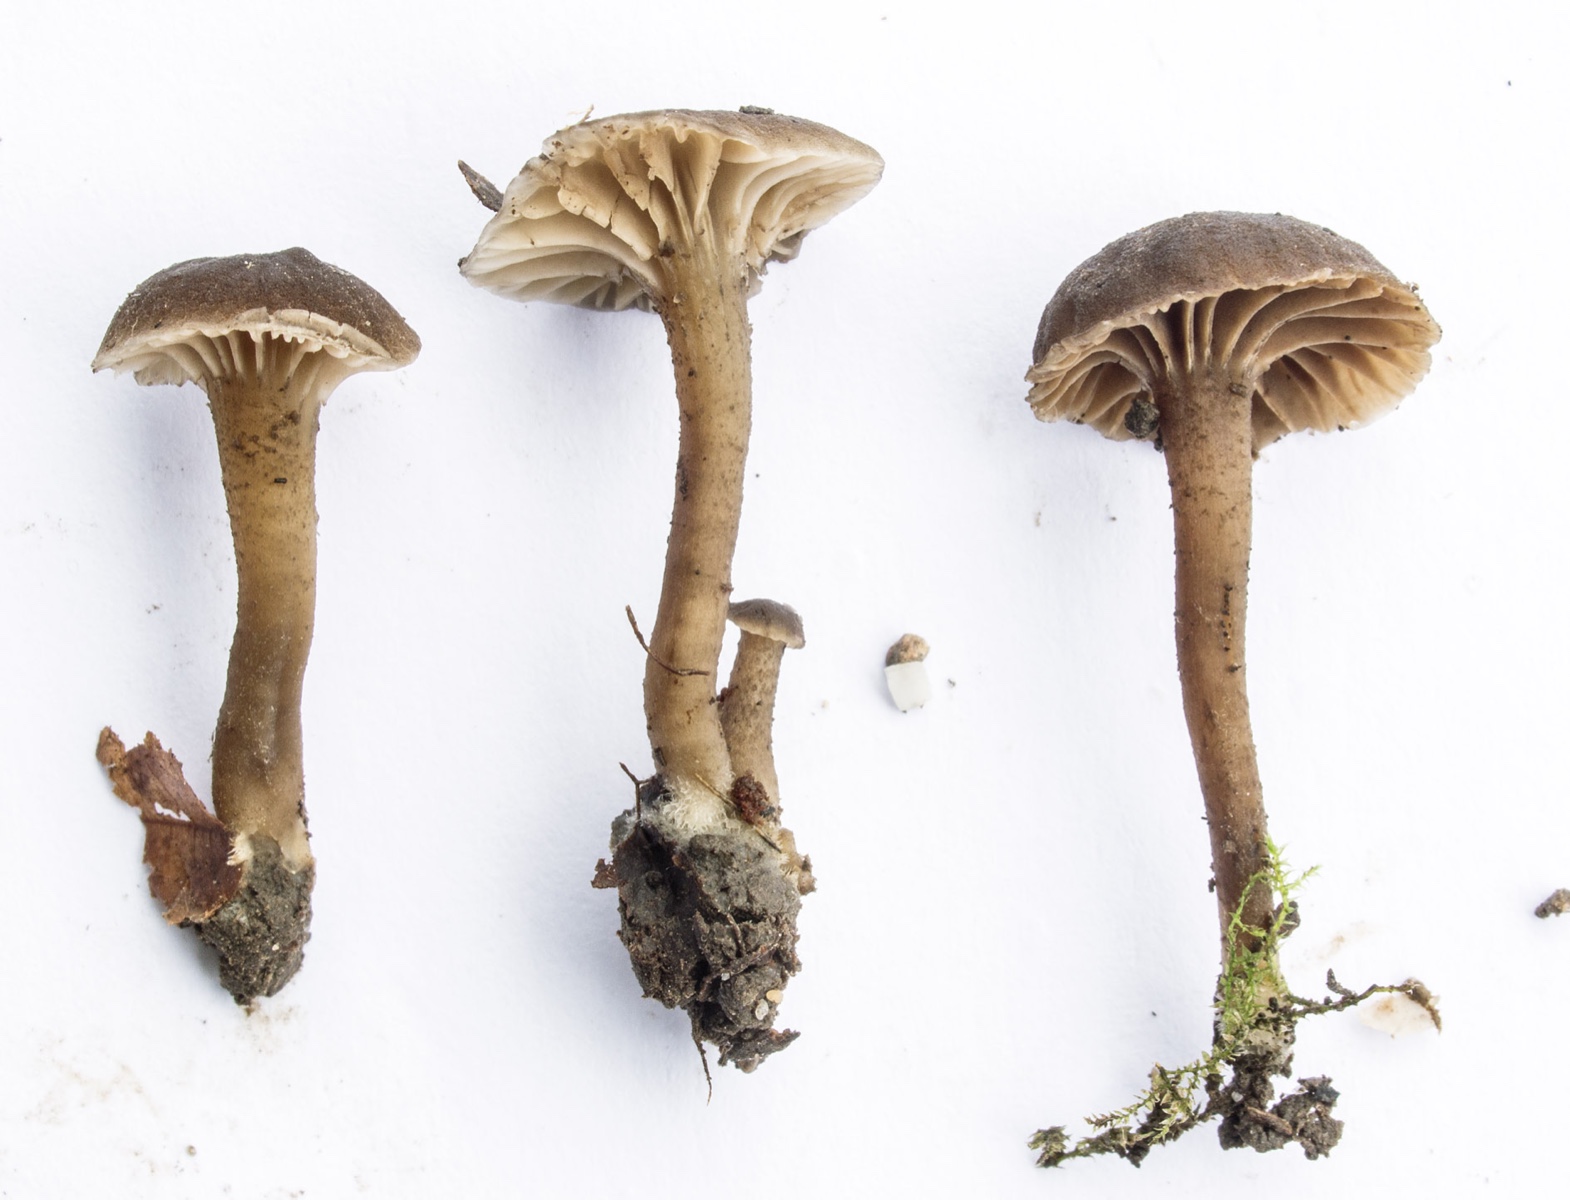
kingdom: Fungi
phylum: Basidiomycota
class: Agaricomycetes
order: Agaricales
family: Clavariaceae
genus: Hodophilus
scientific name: Hodophilus variabilipes
